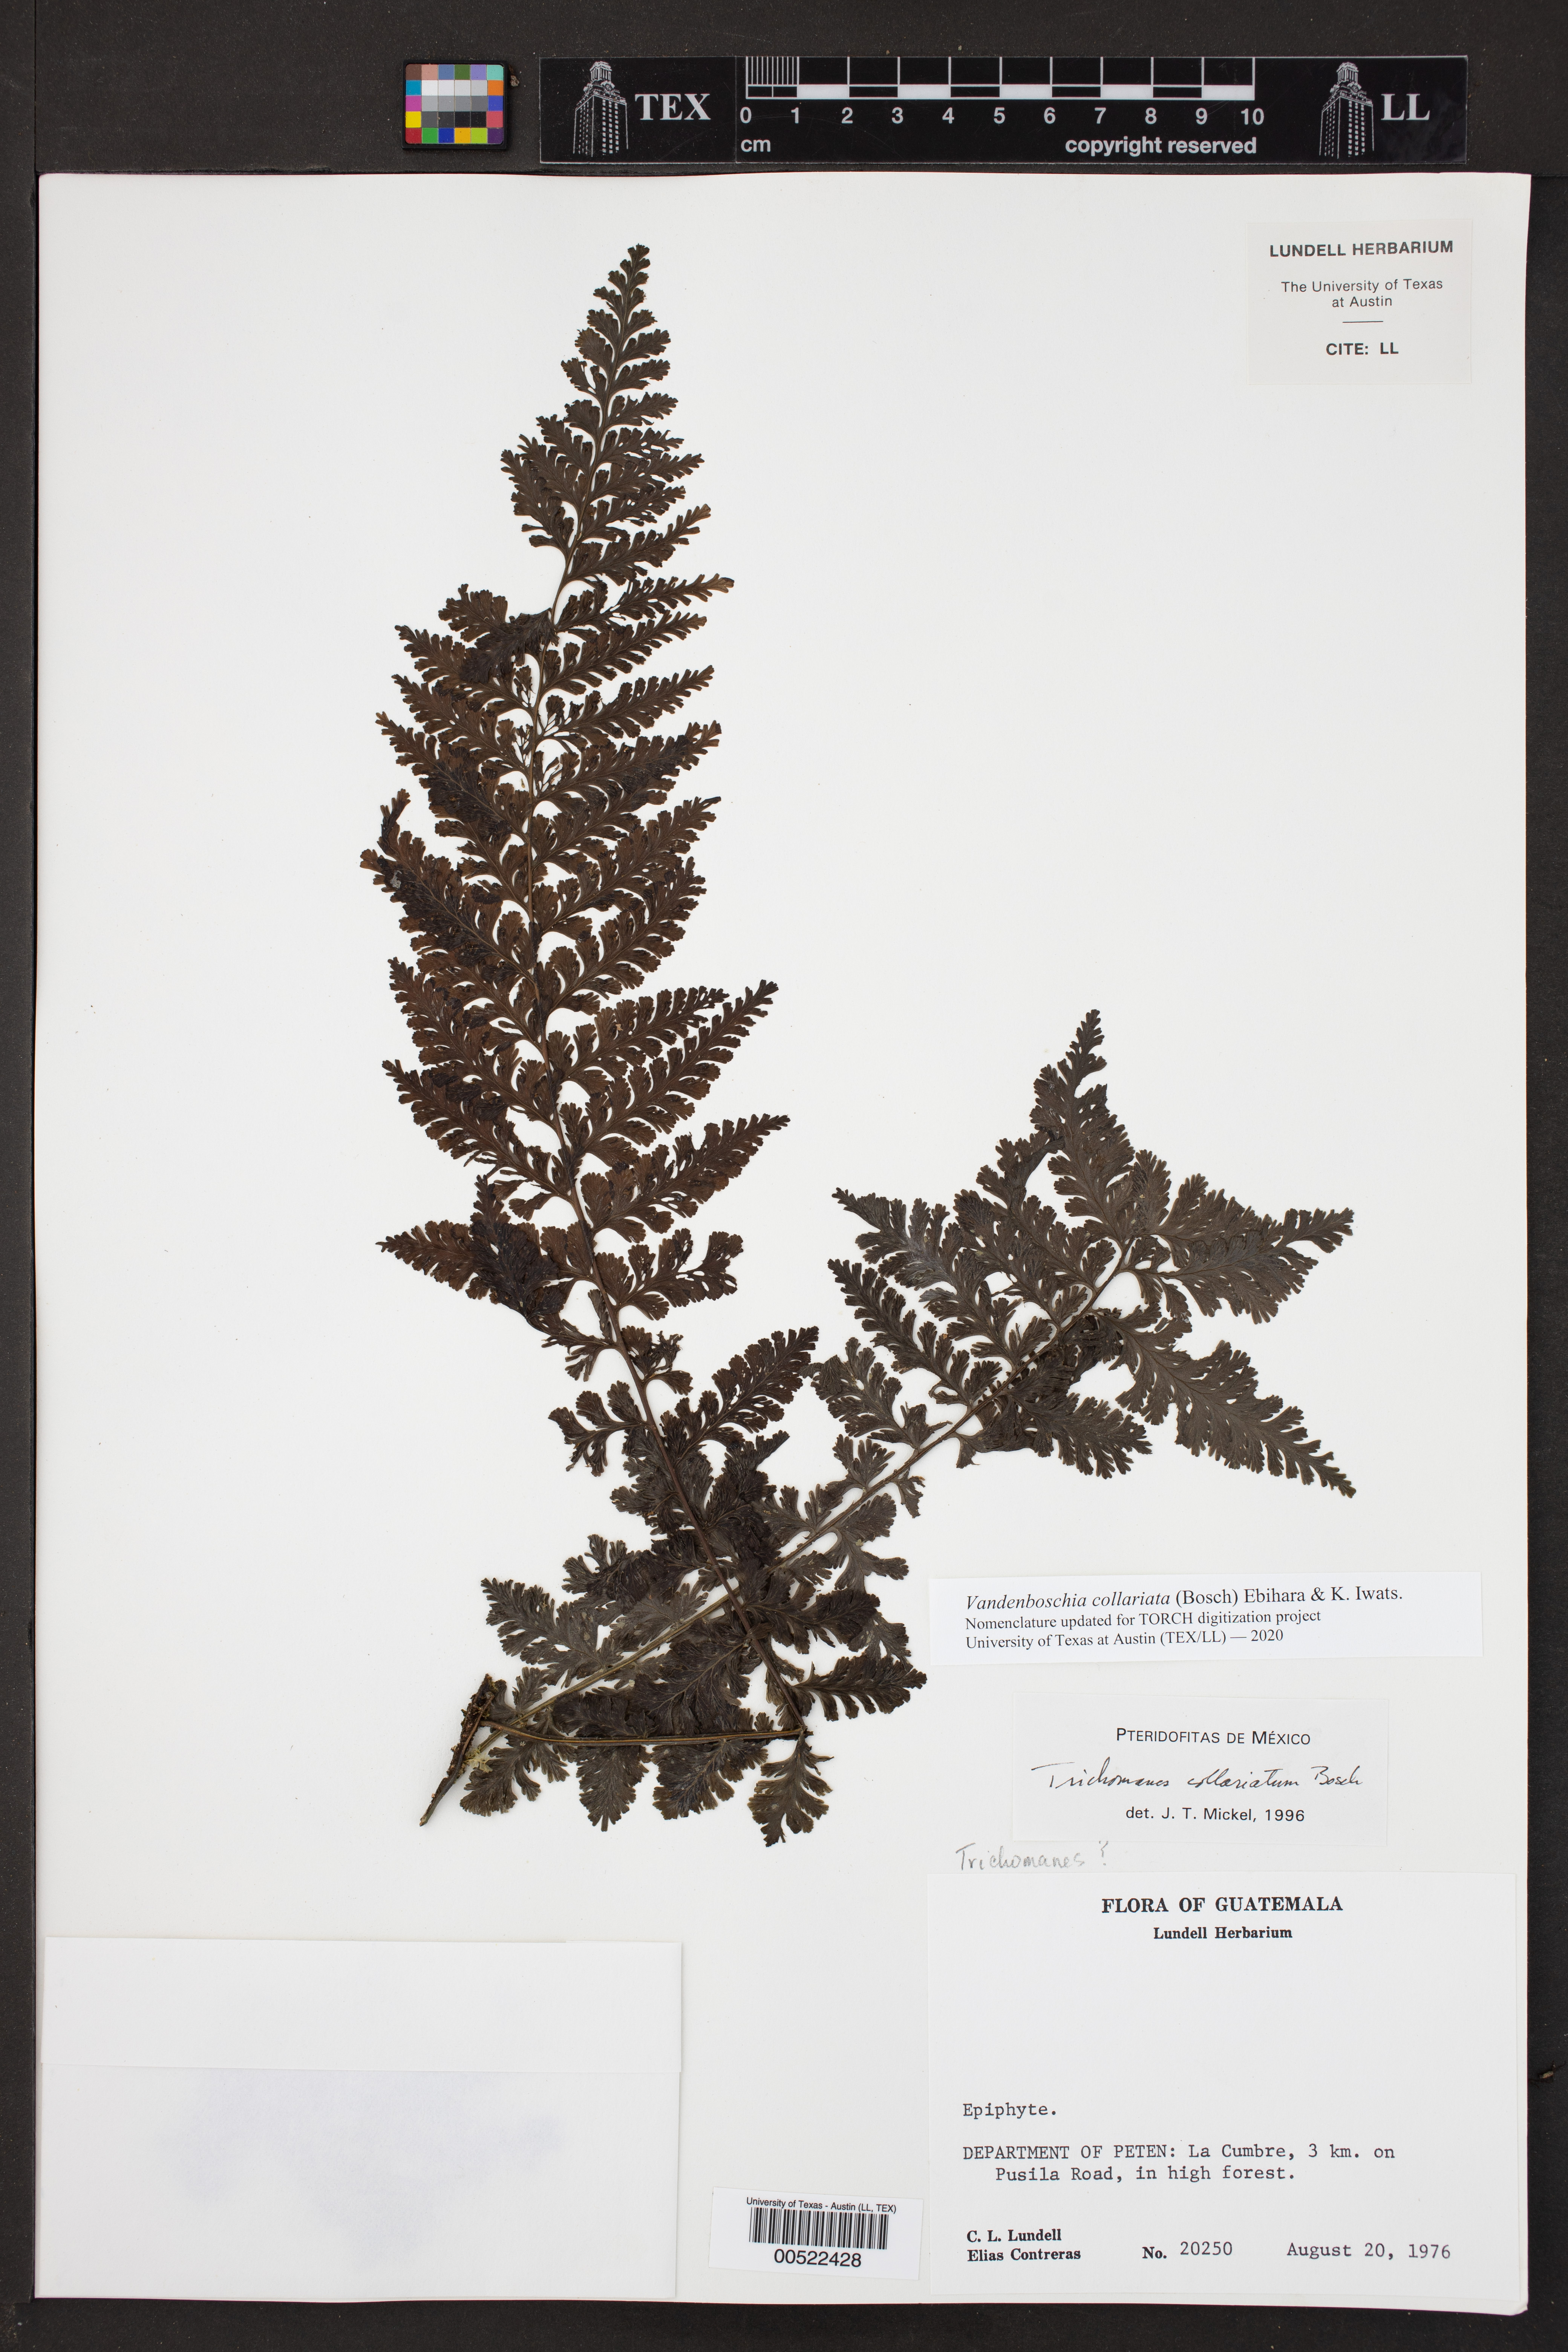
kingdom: Plantae
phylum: Tracheophyta
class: Polypodiopsida
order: Hymenophyllales
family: Hymenophyllaceae
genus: Vandenboschia
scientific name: Vandenboschia collariata
